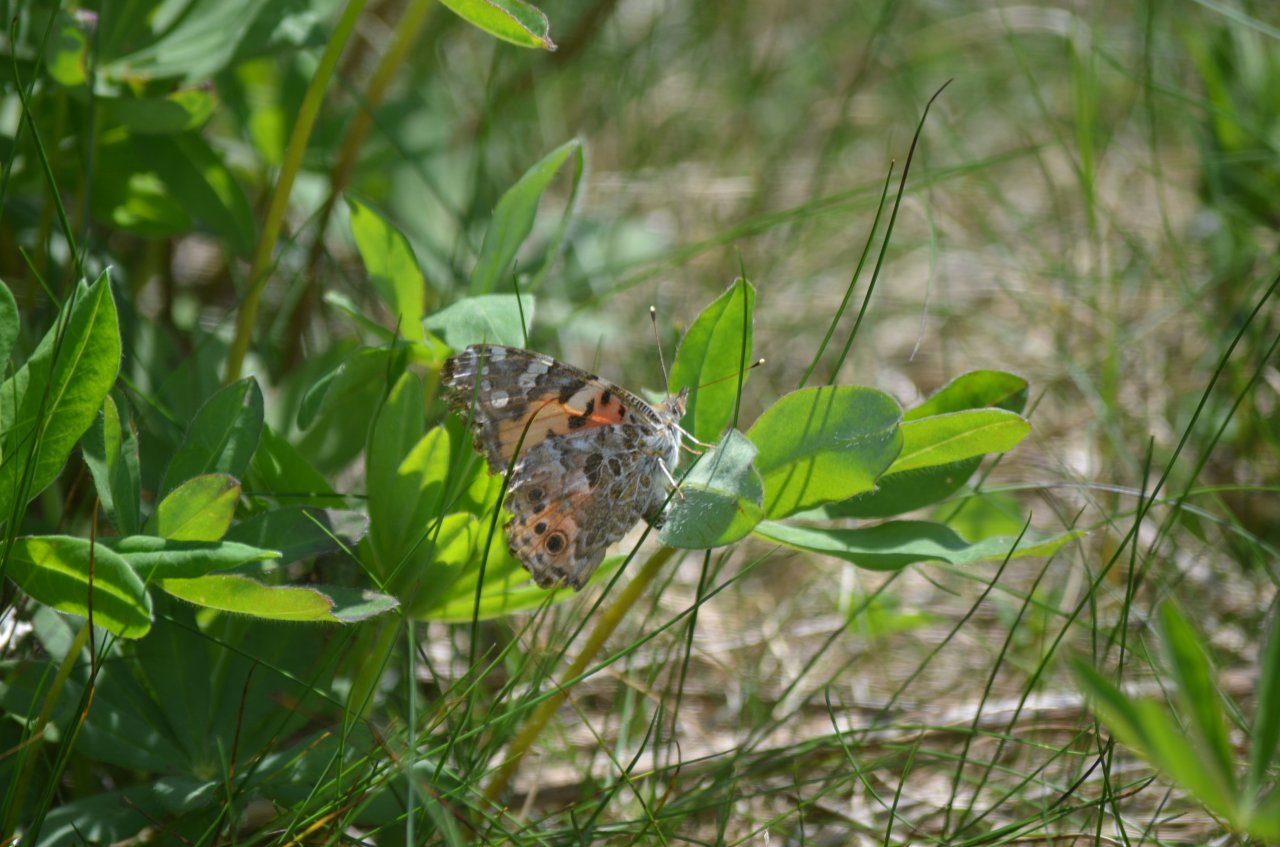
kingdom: Animalia
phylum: Arthropoda
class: Insecta
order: Lepidoptera
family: Nymphalidae
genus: Vanessa
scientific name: Vanessa cardui
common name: Painted Lady
